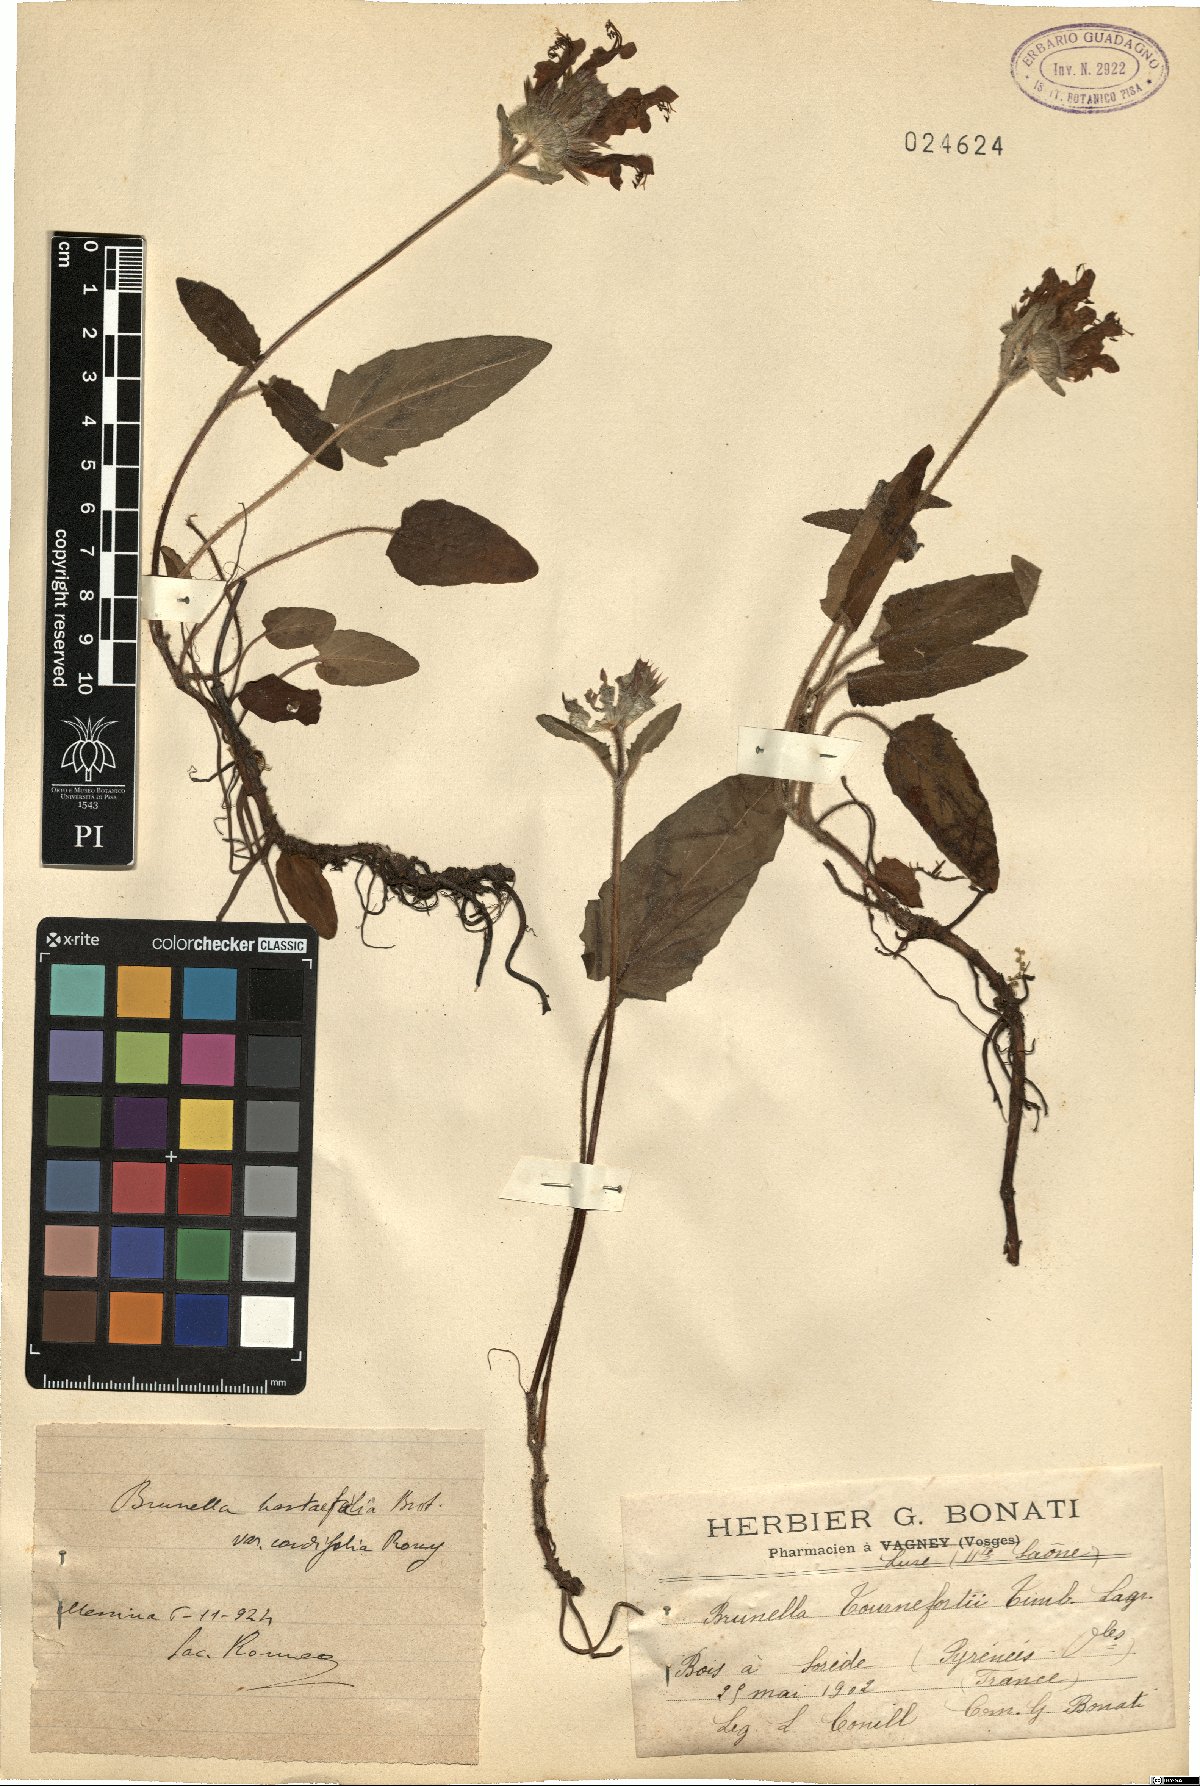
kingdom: Plantae
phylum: Tracheophyta
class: Magnoliopsida
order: Lamiales
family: Lamiaceae
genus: Prunella
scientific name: Prunella grandiflora
